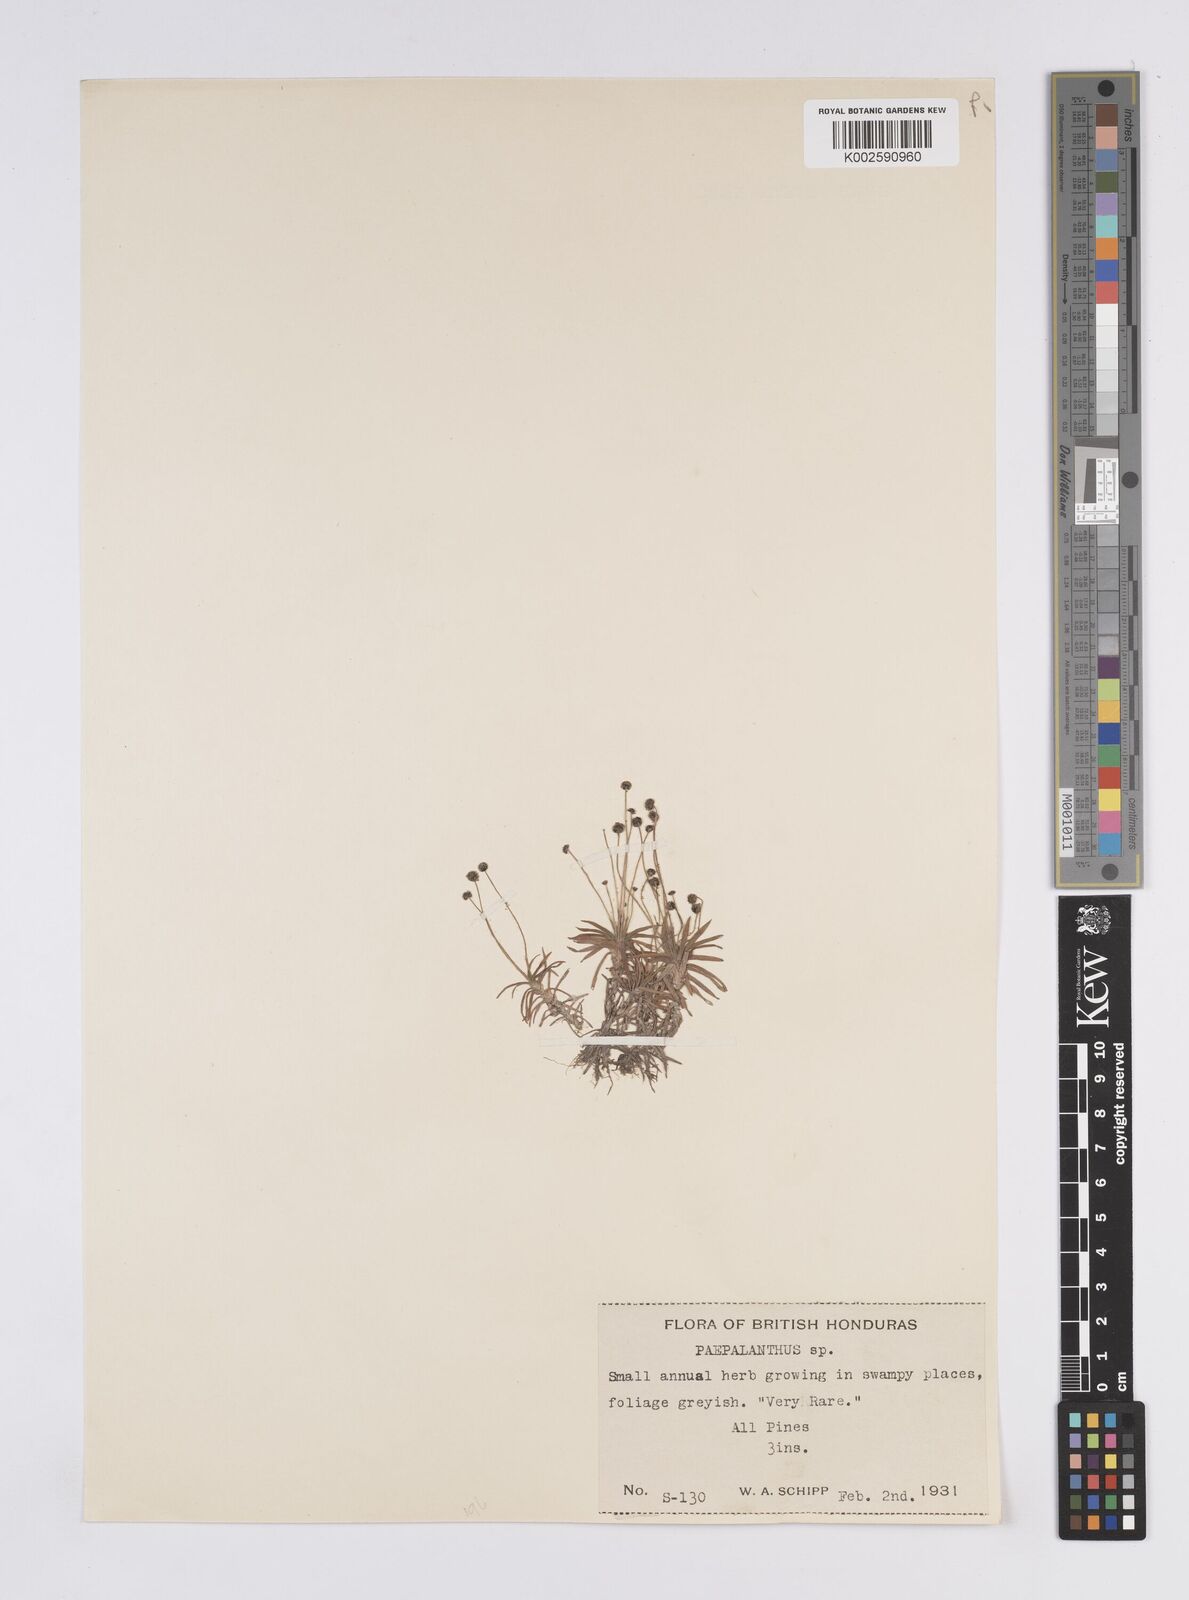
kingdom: Plantae
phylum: Tracheophyta
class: Liliopsida
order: Poales
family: Eriocaulaceae
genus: Paepalanthus
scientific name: Paepalanthus lamarckii
